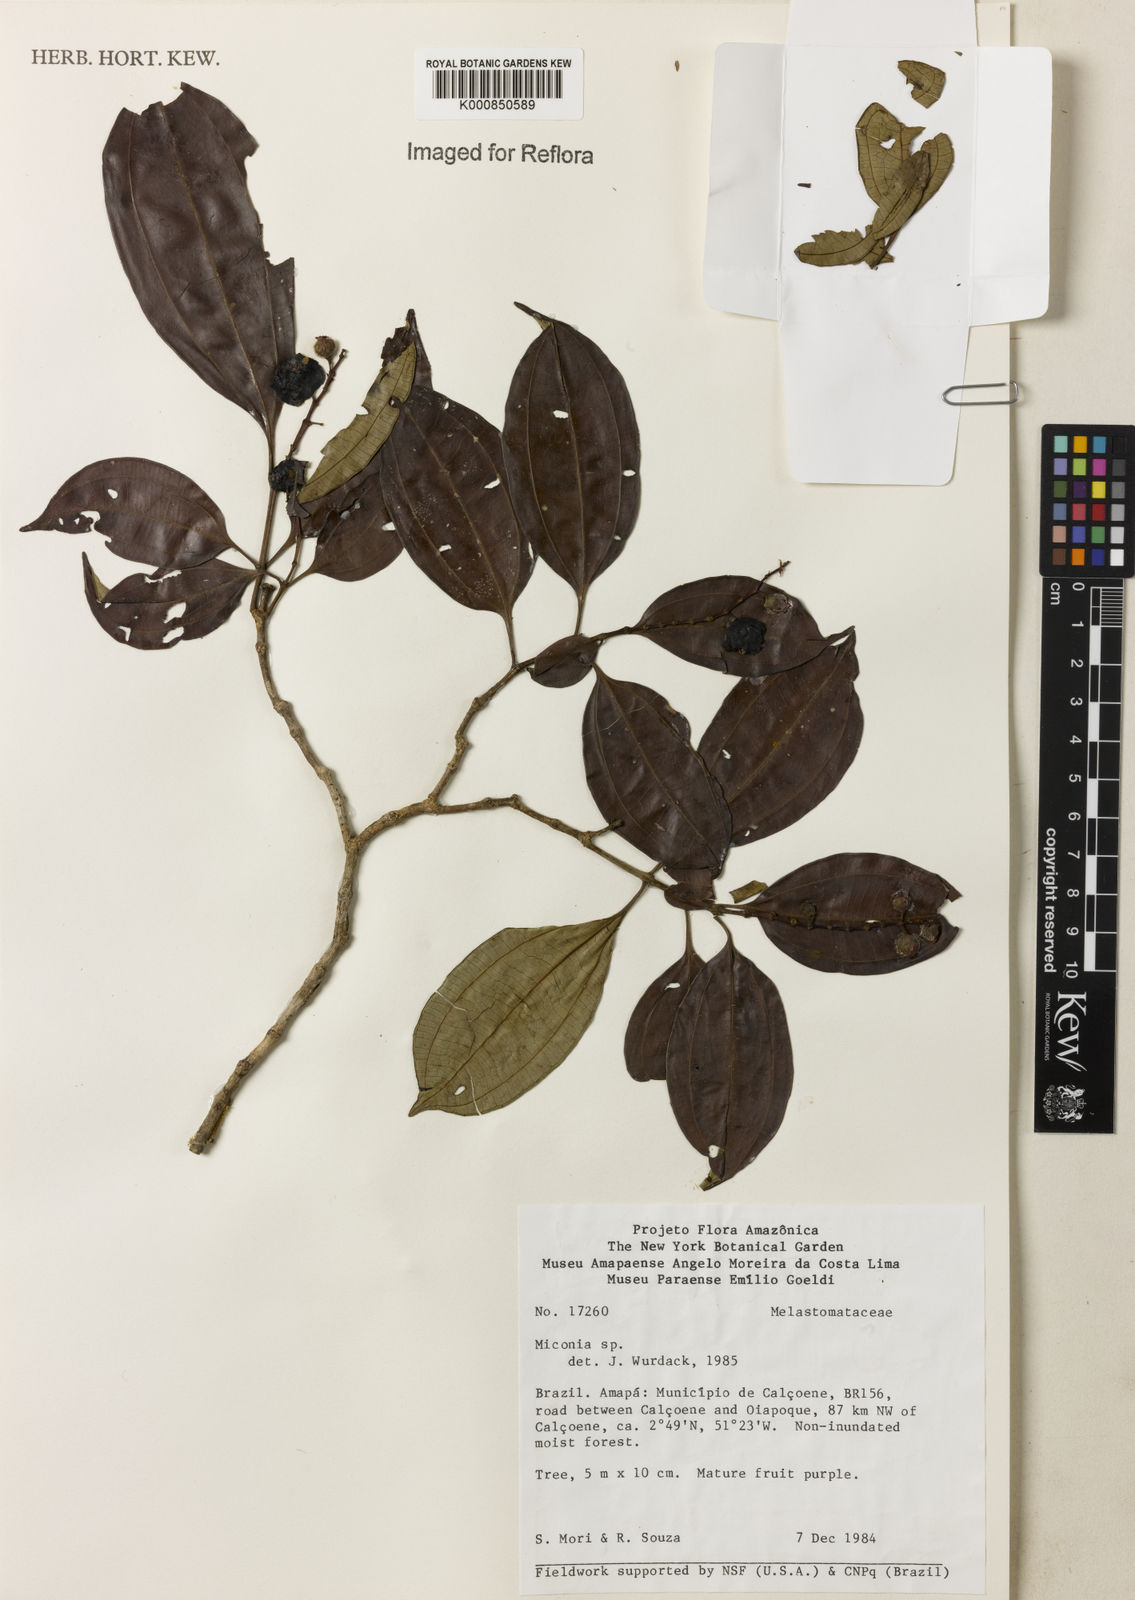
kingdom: Plantae
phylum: Tracheophyta
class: Magnoliopsida
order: Myrtales
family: Melastomataceae
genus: Miconia
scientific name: Miconia
